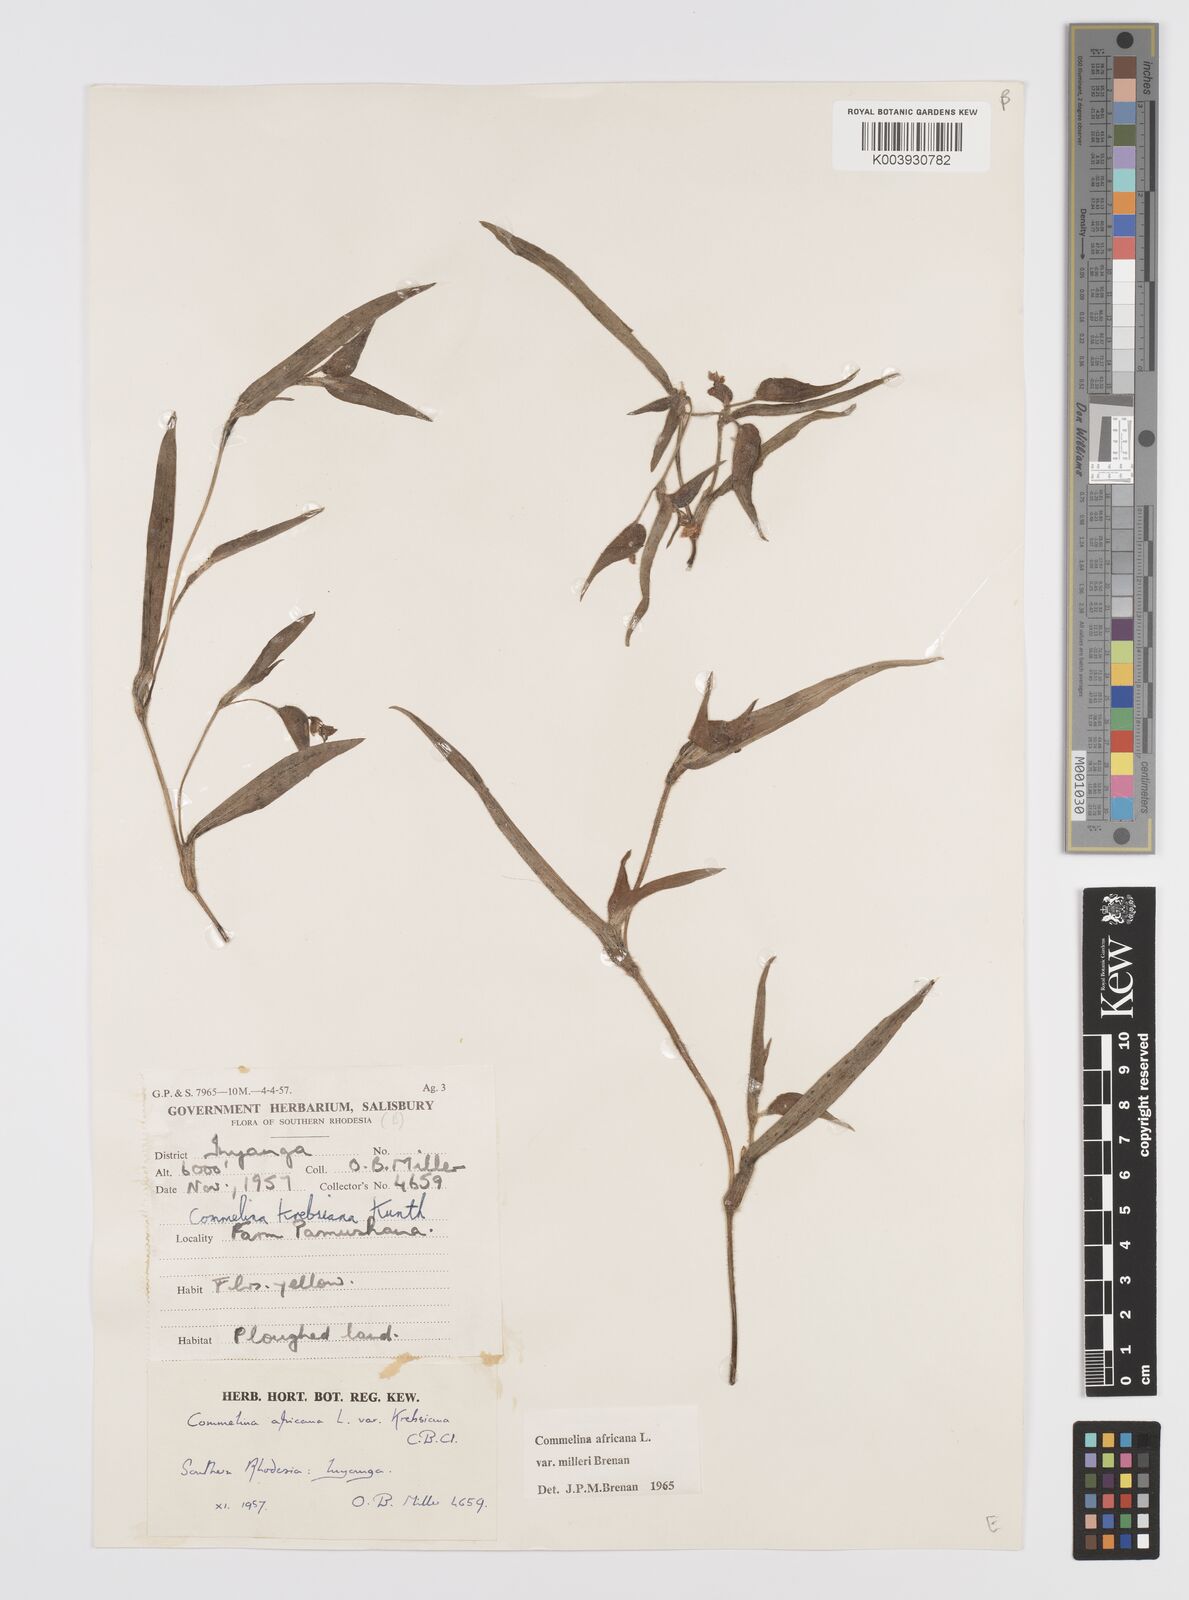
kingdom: Plantae
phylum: Tracheophyta
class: Liliopsida
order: Commelinales
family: Commelinaceae
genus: Commelina
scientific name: Commelina africana
